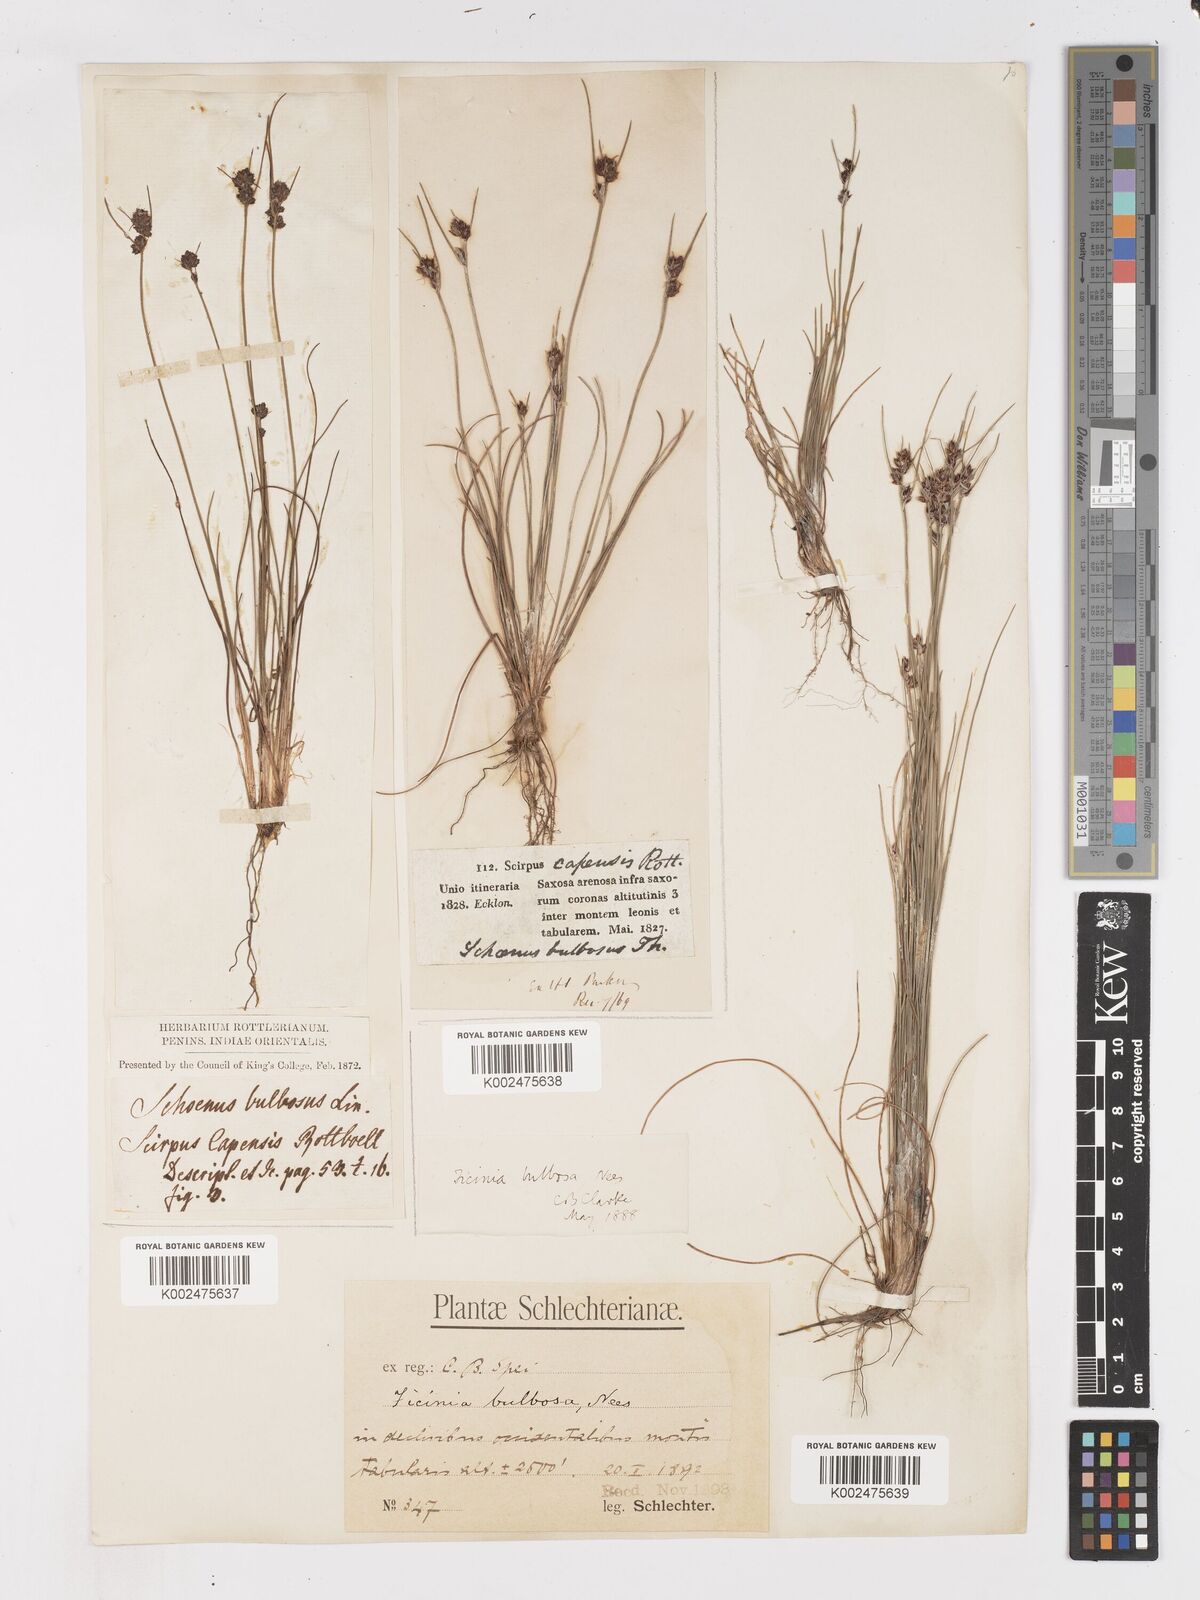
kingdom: Plantae
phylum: Tracheophyta
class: Liliopsida
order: Poales
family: Cyperaceae
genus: Ficinia
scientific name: Ficinia bulbosa
